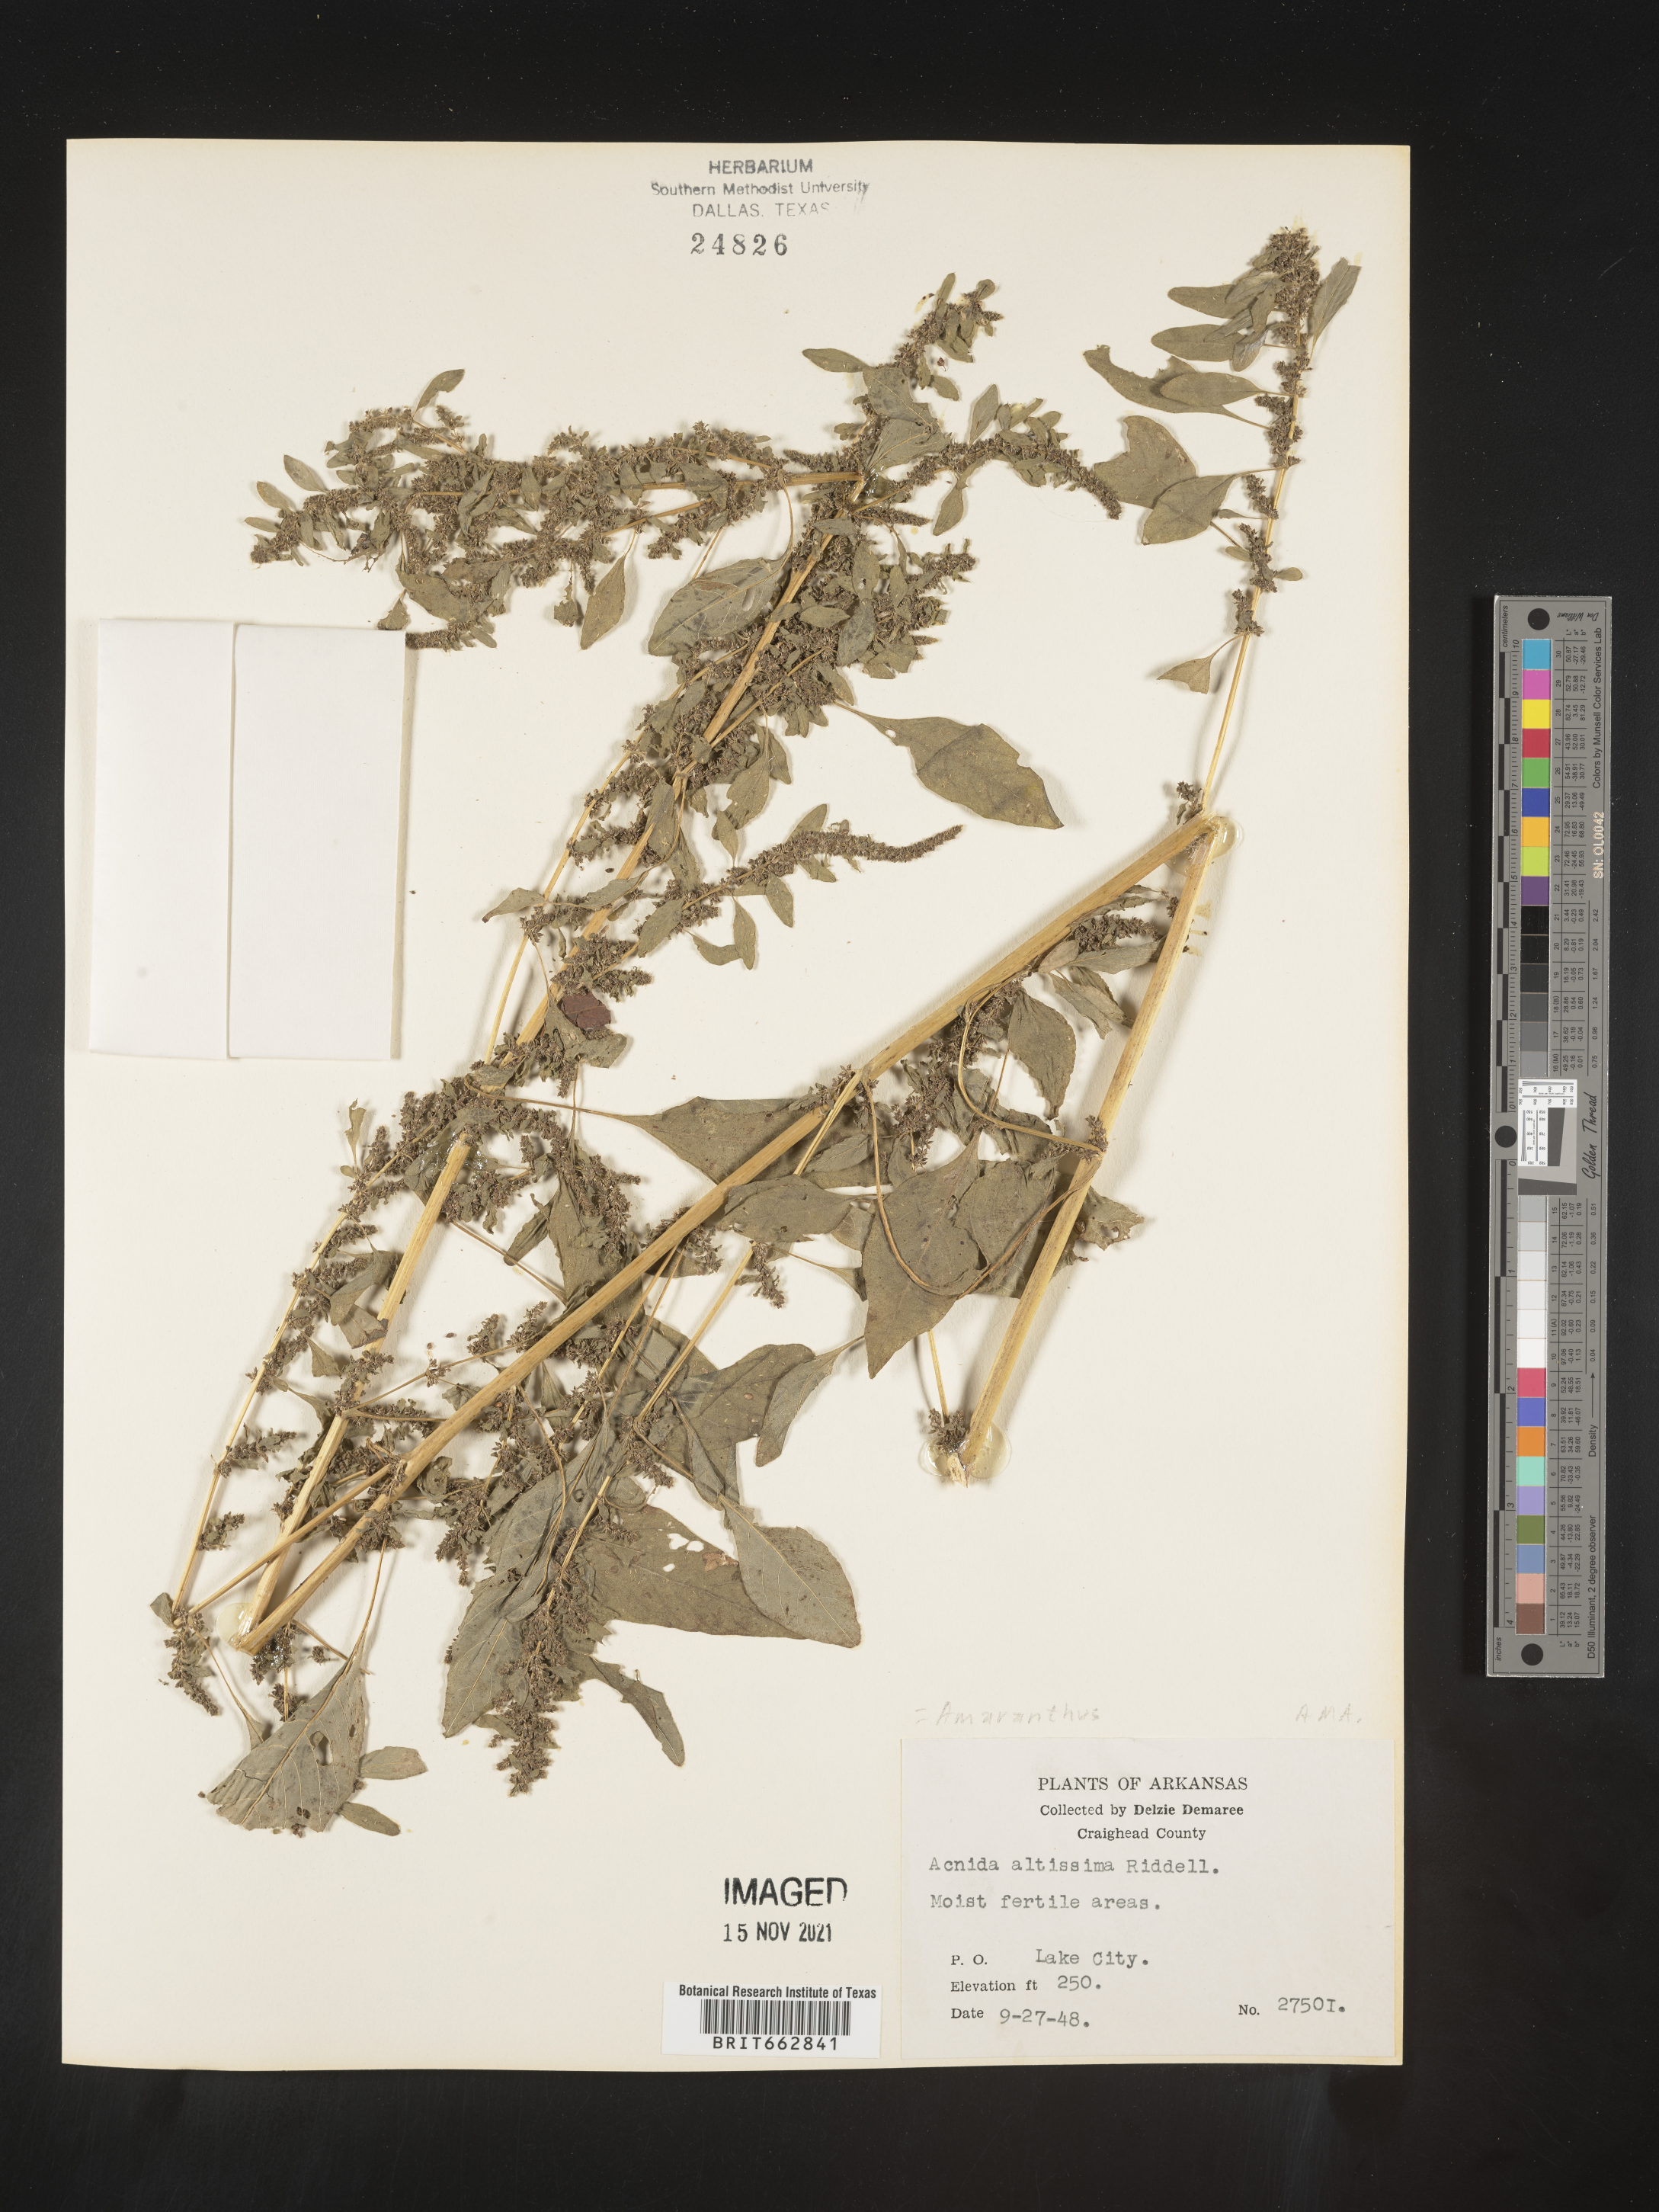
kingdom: Plantae
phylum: Tracheophyta
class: Magnoliopsida
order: Caryophyllales
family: Amaranthaceae
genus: Amaranthus
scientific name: Amaranthus tuberculatus
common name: Rough-fruit amaranth
